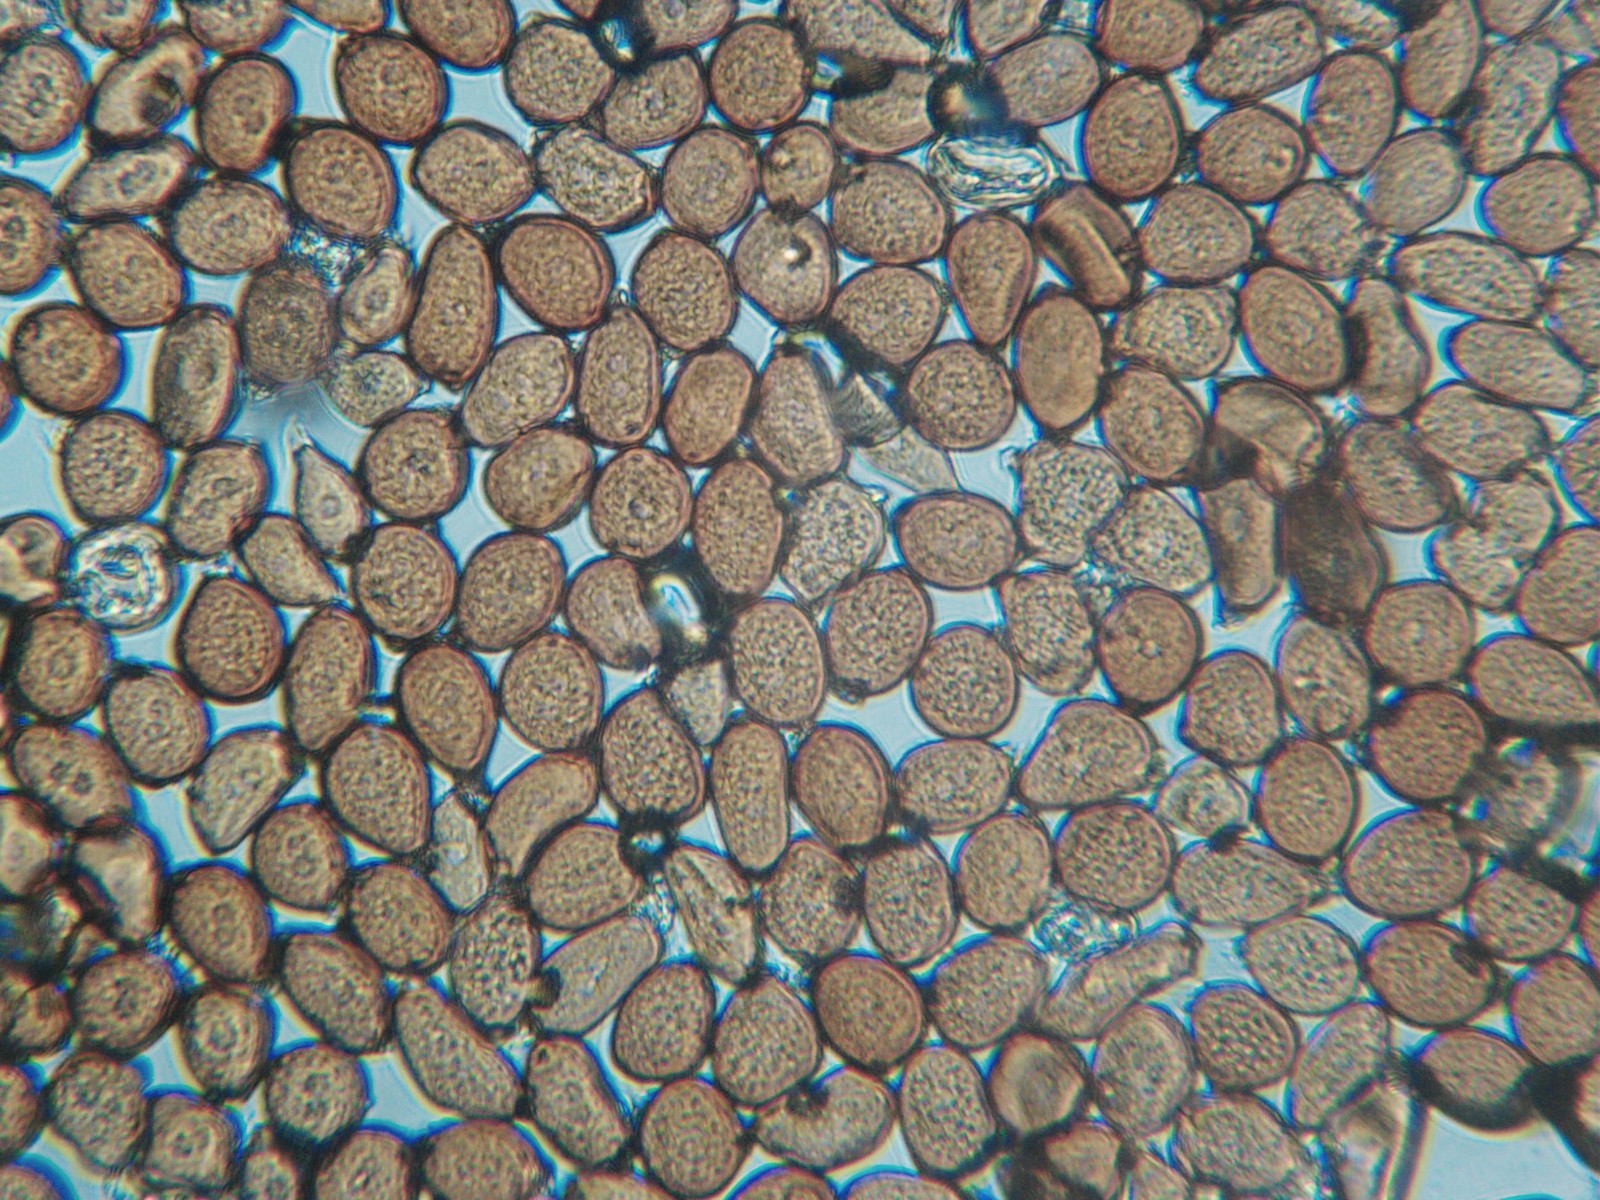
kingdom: Fungi
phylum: Basidiomycota
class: Pucciniomycetes
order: Pucciniales
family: Pucciniaceae
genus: Uromyces
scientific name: Uromyces ficariae
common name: vorterod-encellerust
